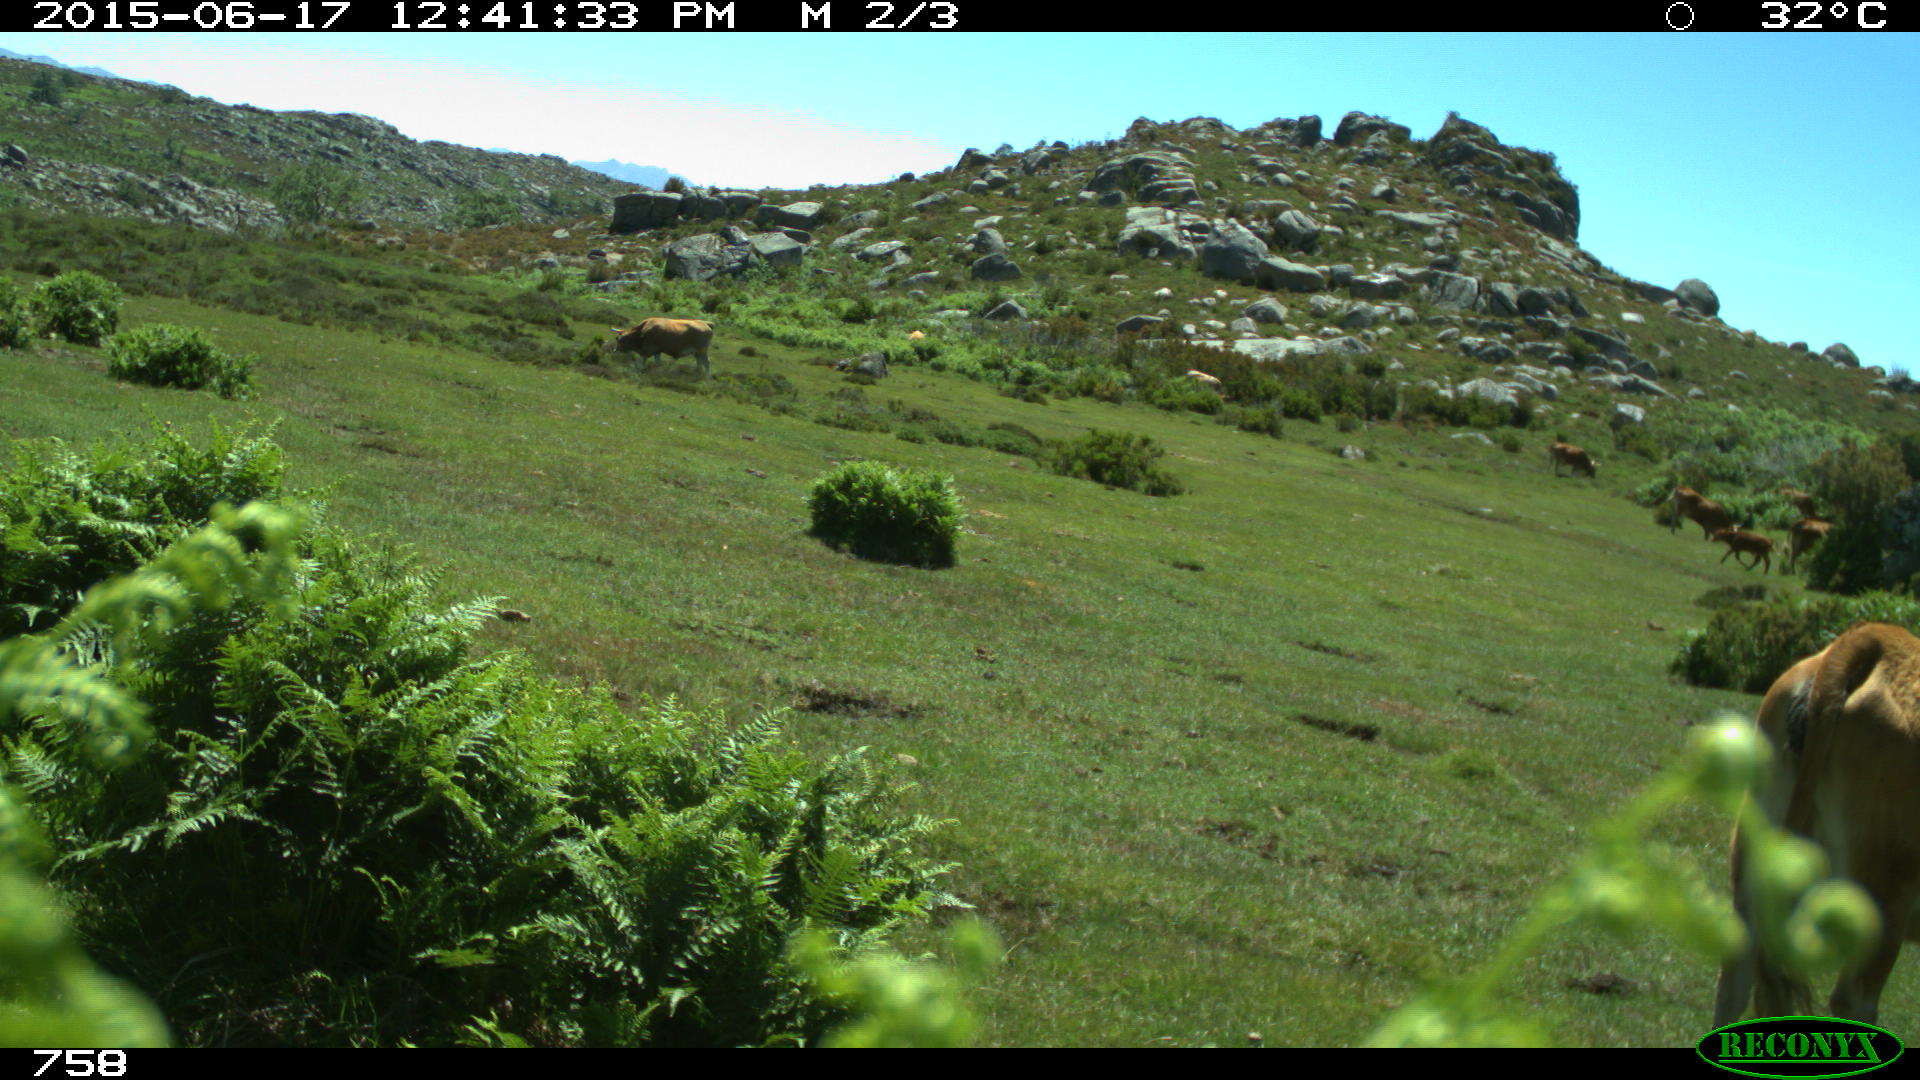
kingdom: Animalia
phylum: Chordata
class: Mammalia
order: Artiodactyla
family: Bovidae
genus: Bos
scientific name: Bos taurus
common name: Domesticated cattle
